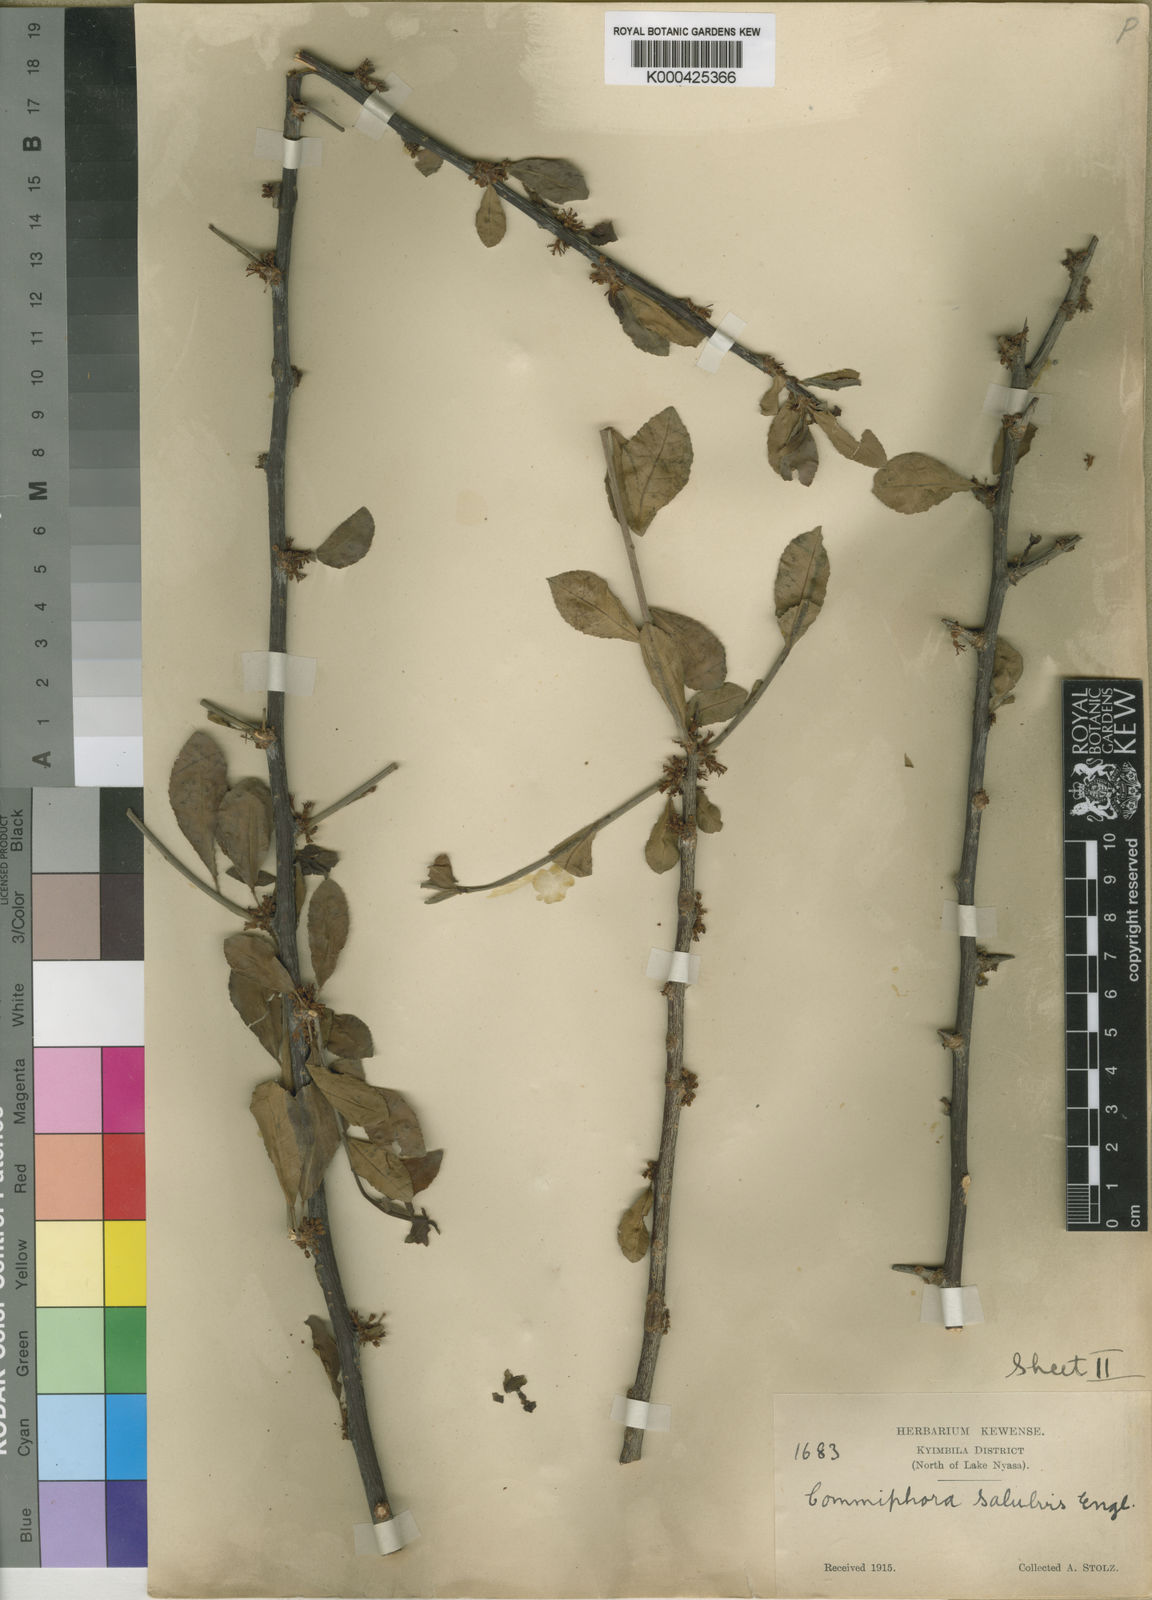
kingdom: Plantae
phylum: Tracheophyta
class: Magnoliopsida
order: Sapindales
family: Burseraceae
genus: Commiphora
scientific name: Commiphora kua
